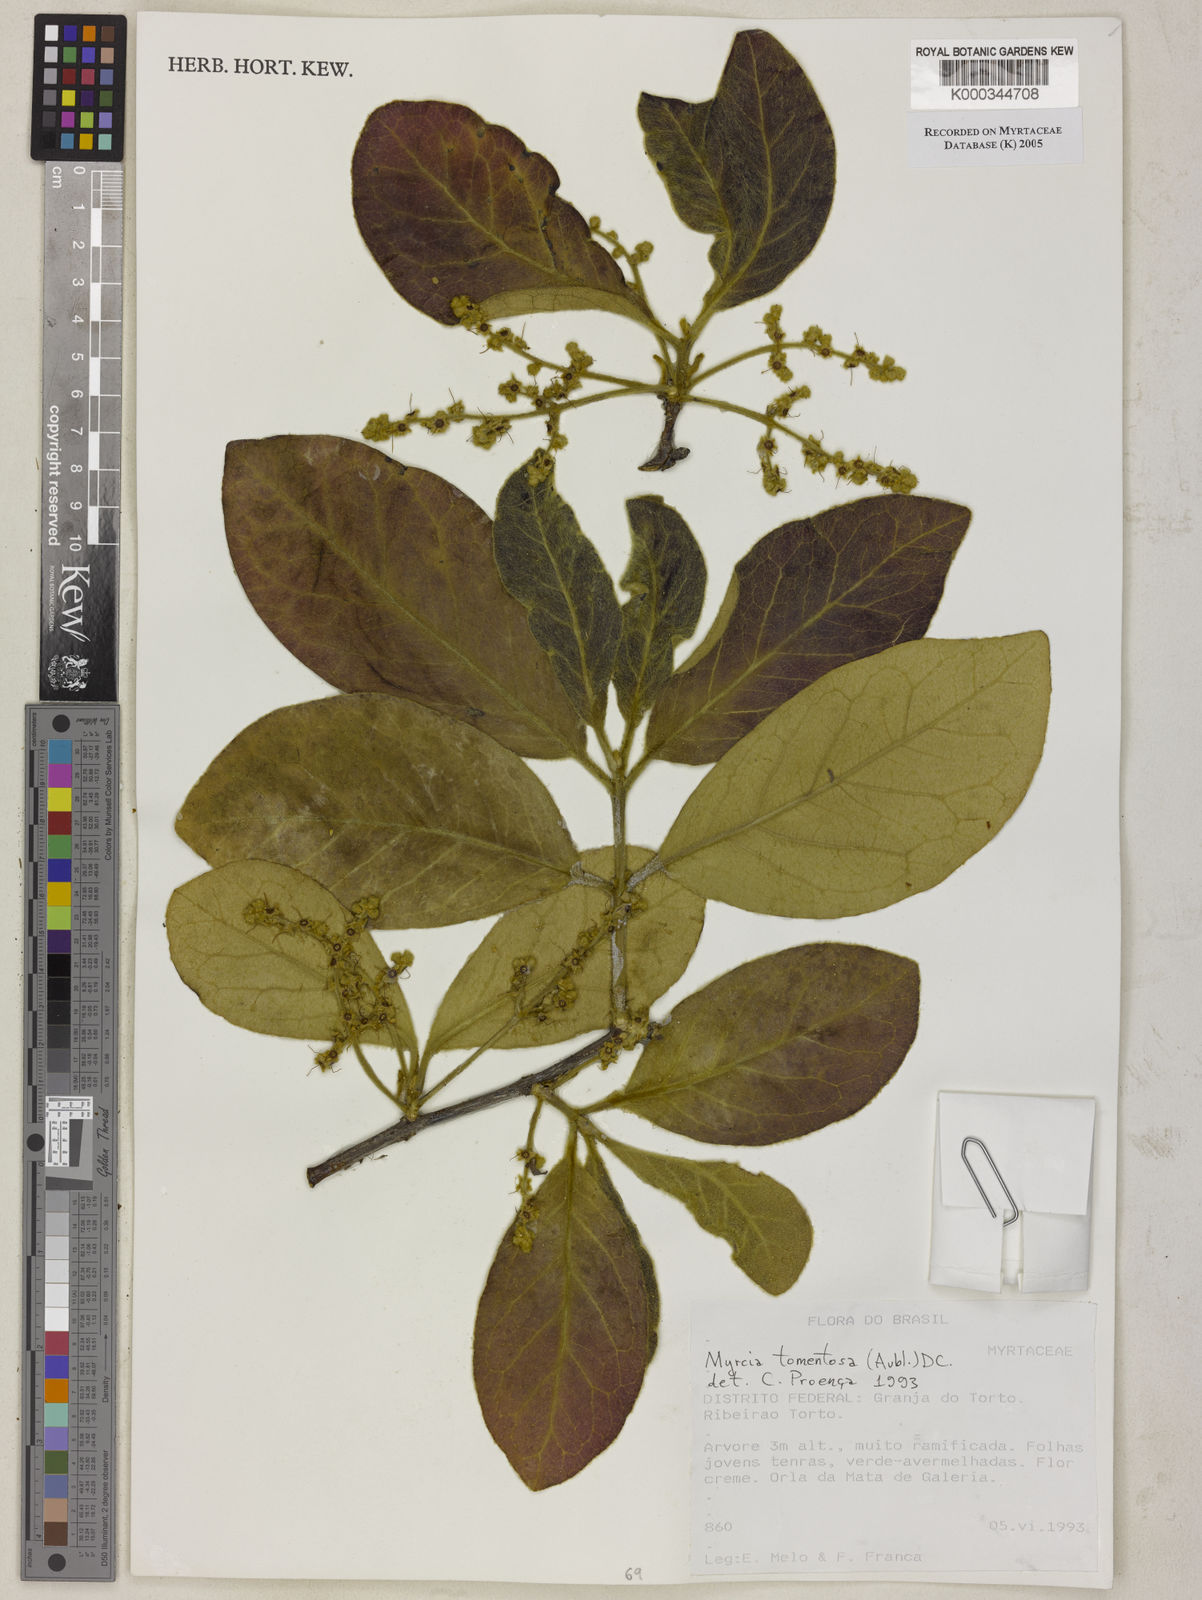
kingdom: Plantae
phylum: Tracheophyta
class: Magnoliopsida
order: Myrtales
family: Myrtaceae
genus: Myrcia
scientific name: Myrcia tomentosa
